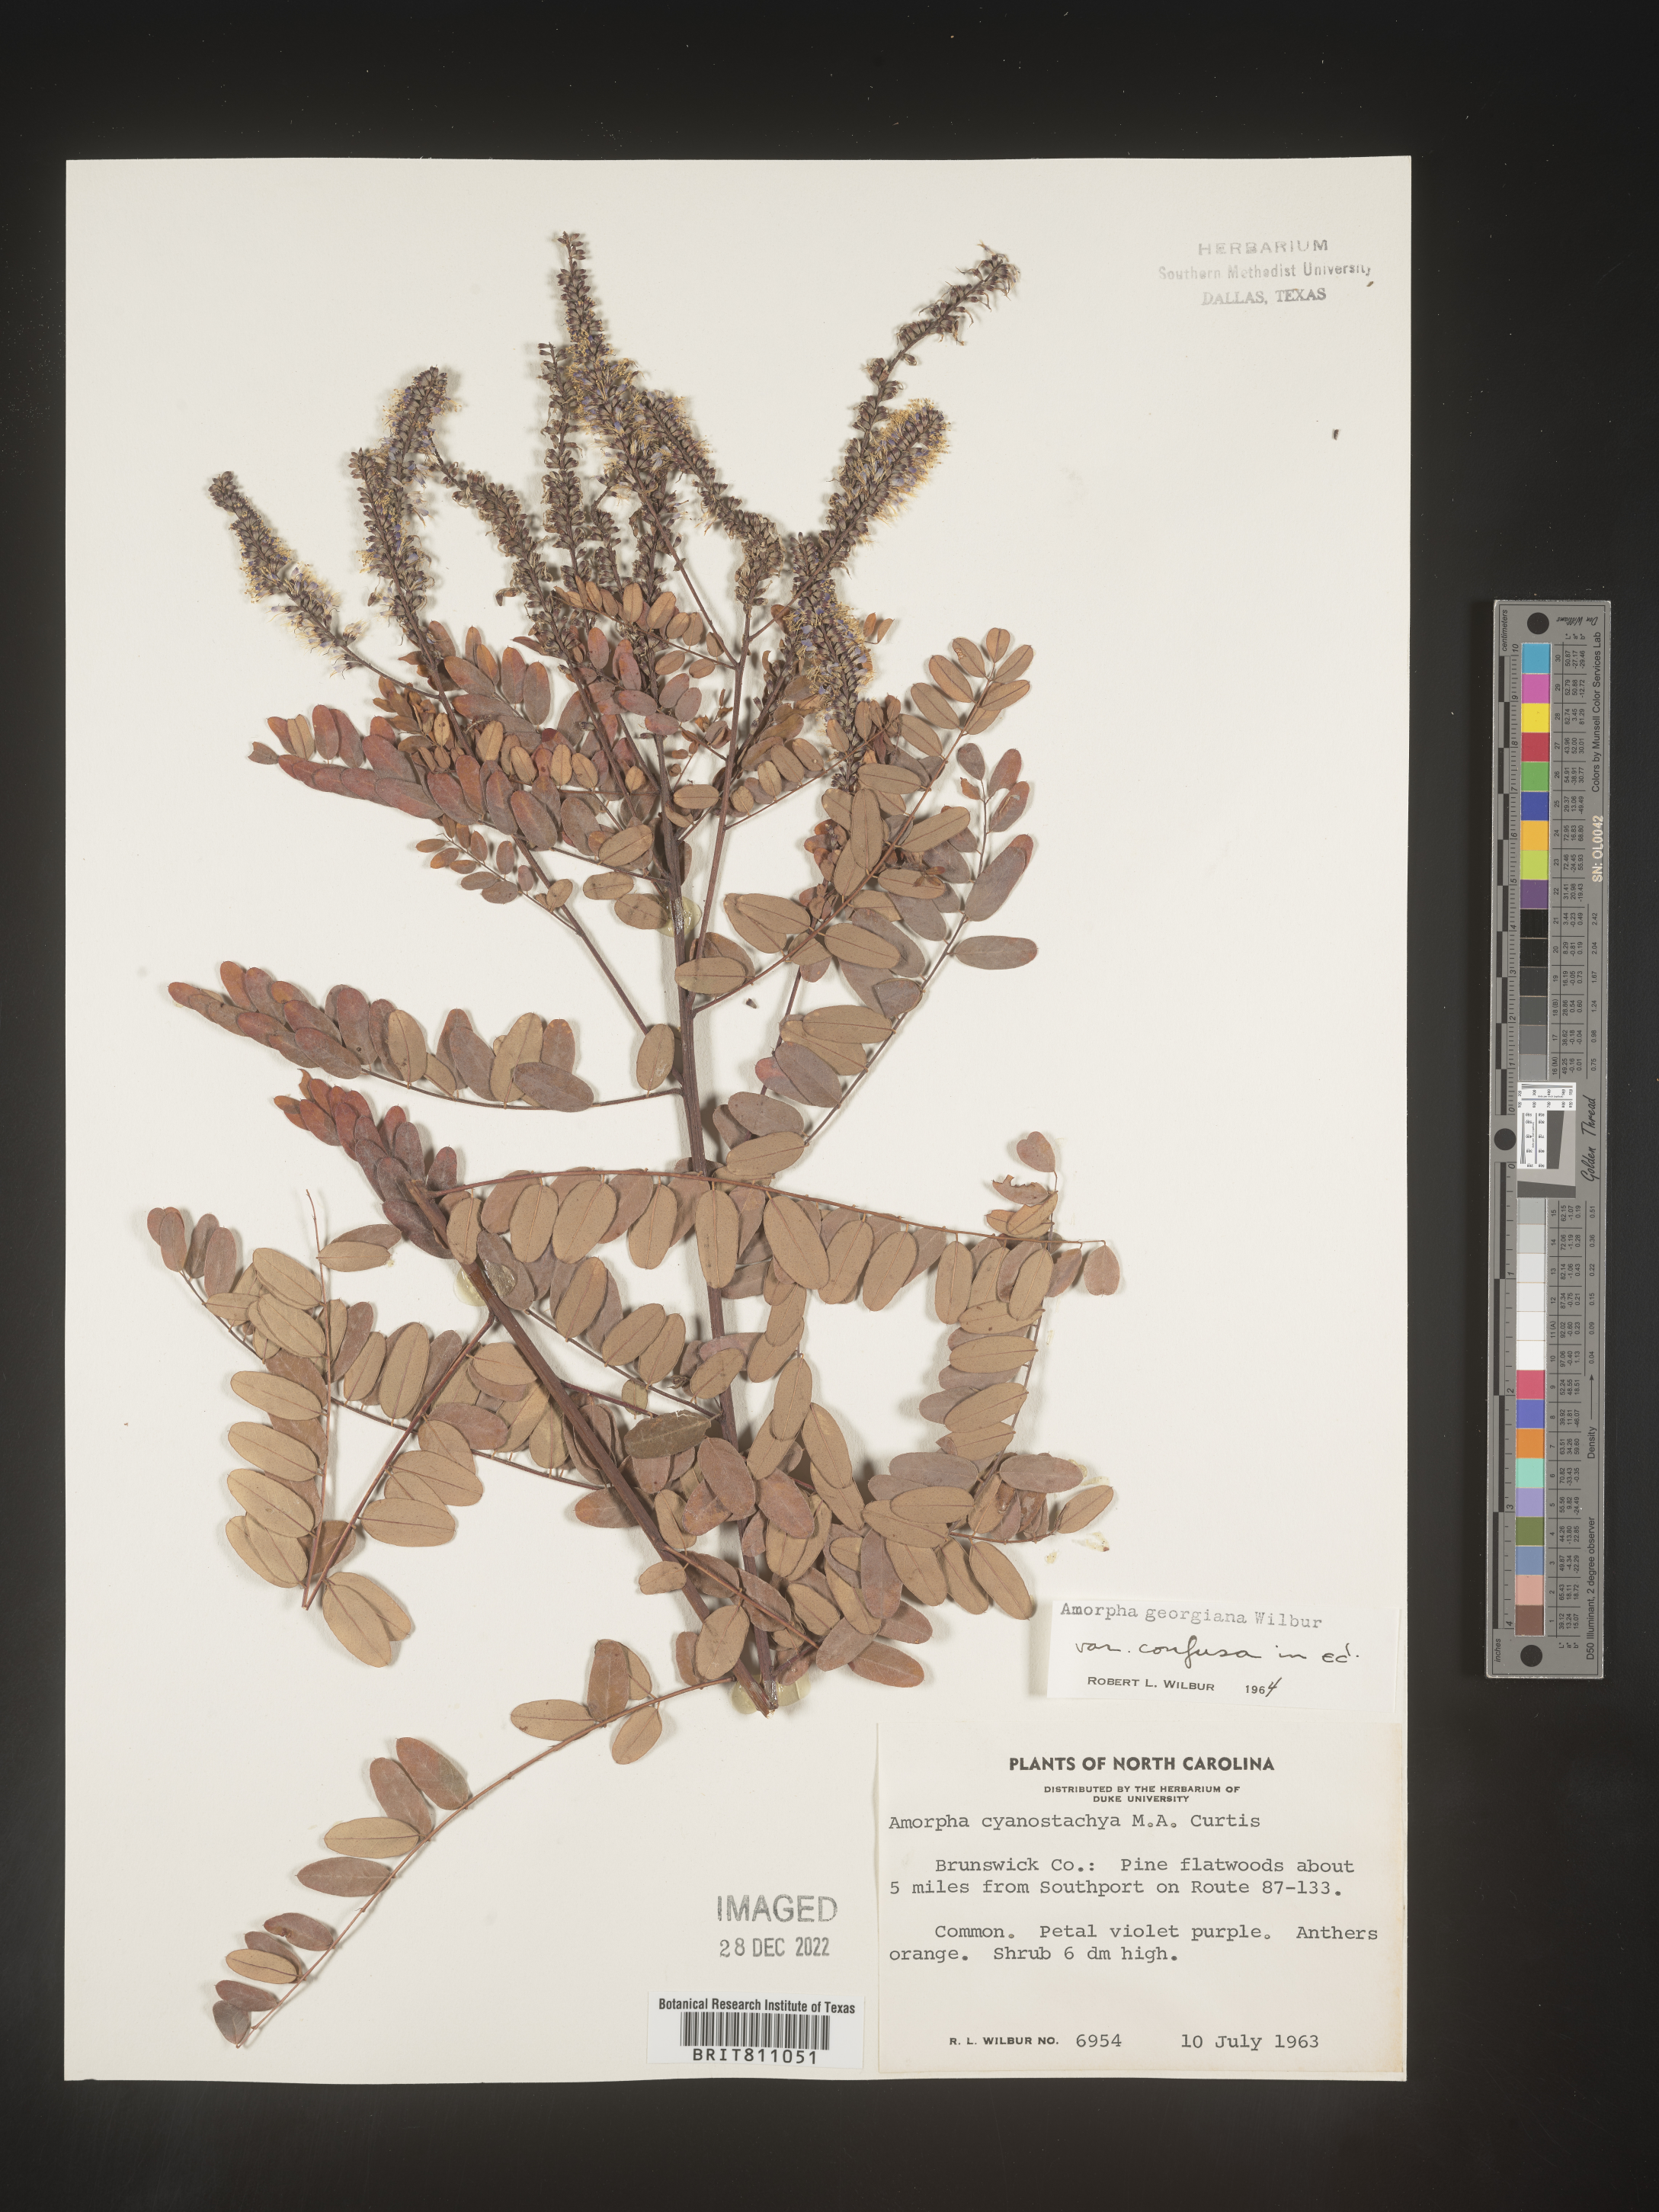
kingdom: Plantae
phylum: Tracheophyta
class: Magnoliopsida
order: Fabales
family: Fabaceae
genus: Amorpha
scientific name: Amorpha georgiana
